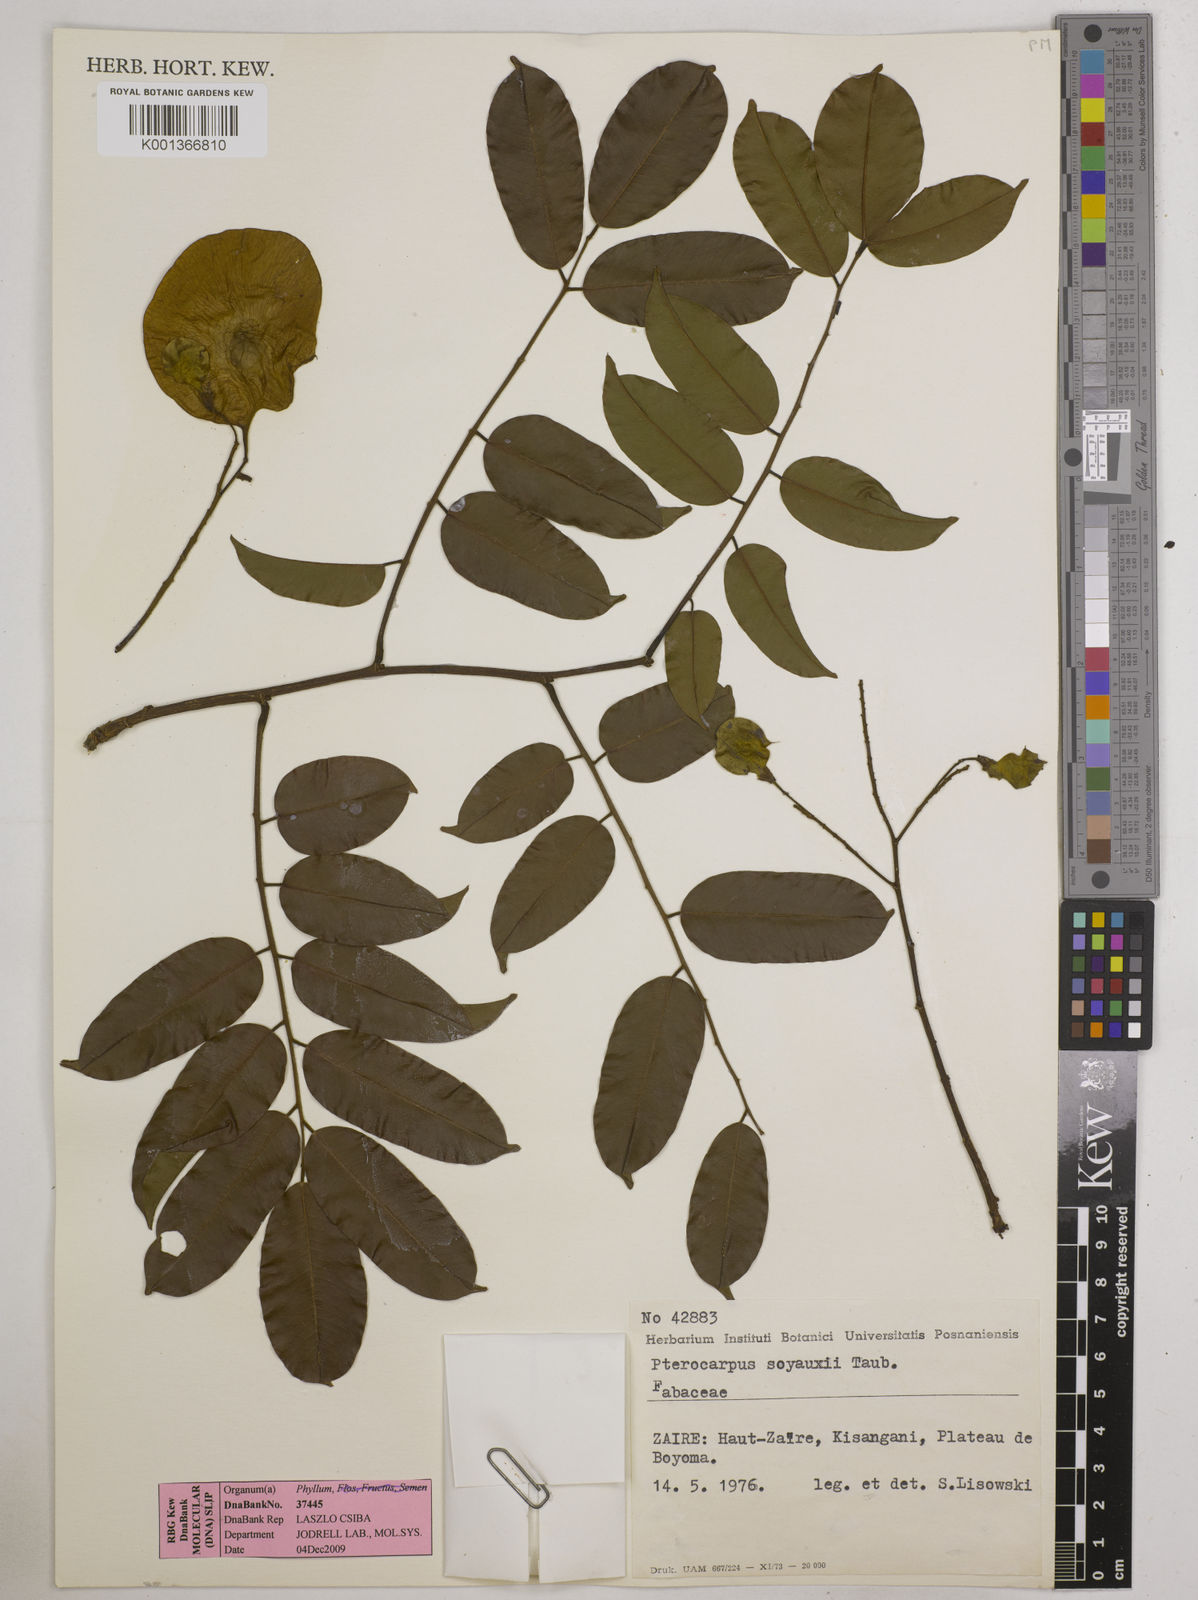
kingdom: Plantae
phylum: Tracheophyta
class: Magnoliopsida
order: Fabales
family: Fabaceae
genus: Pterocarpus
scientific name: Pterocarpus soyauxii
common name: African coralwood
